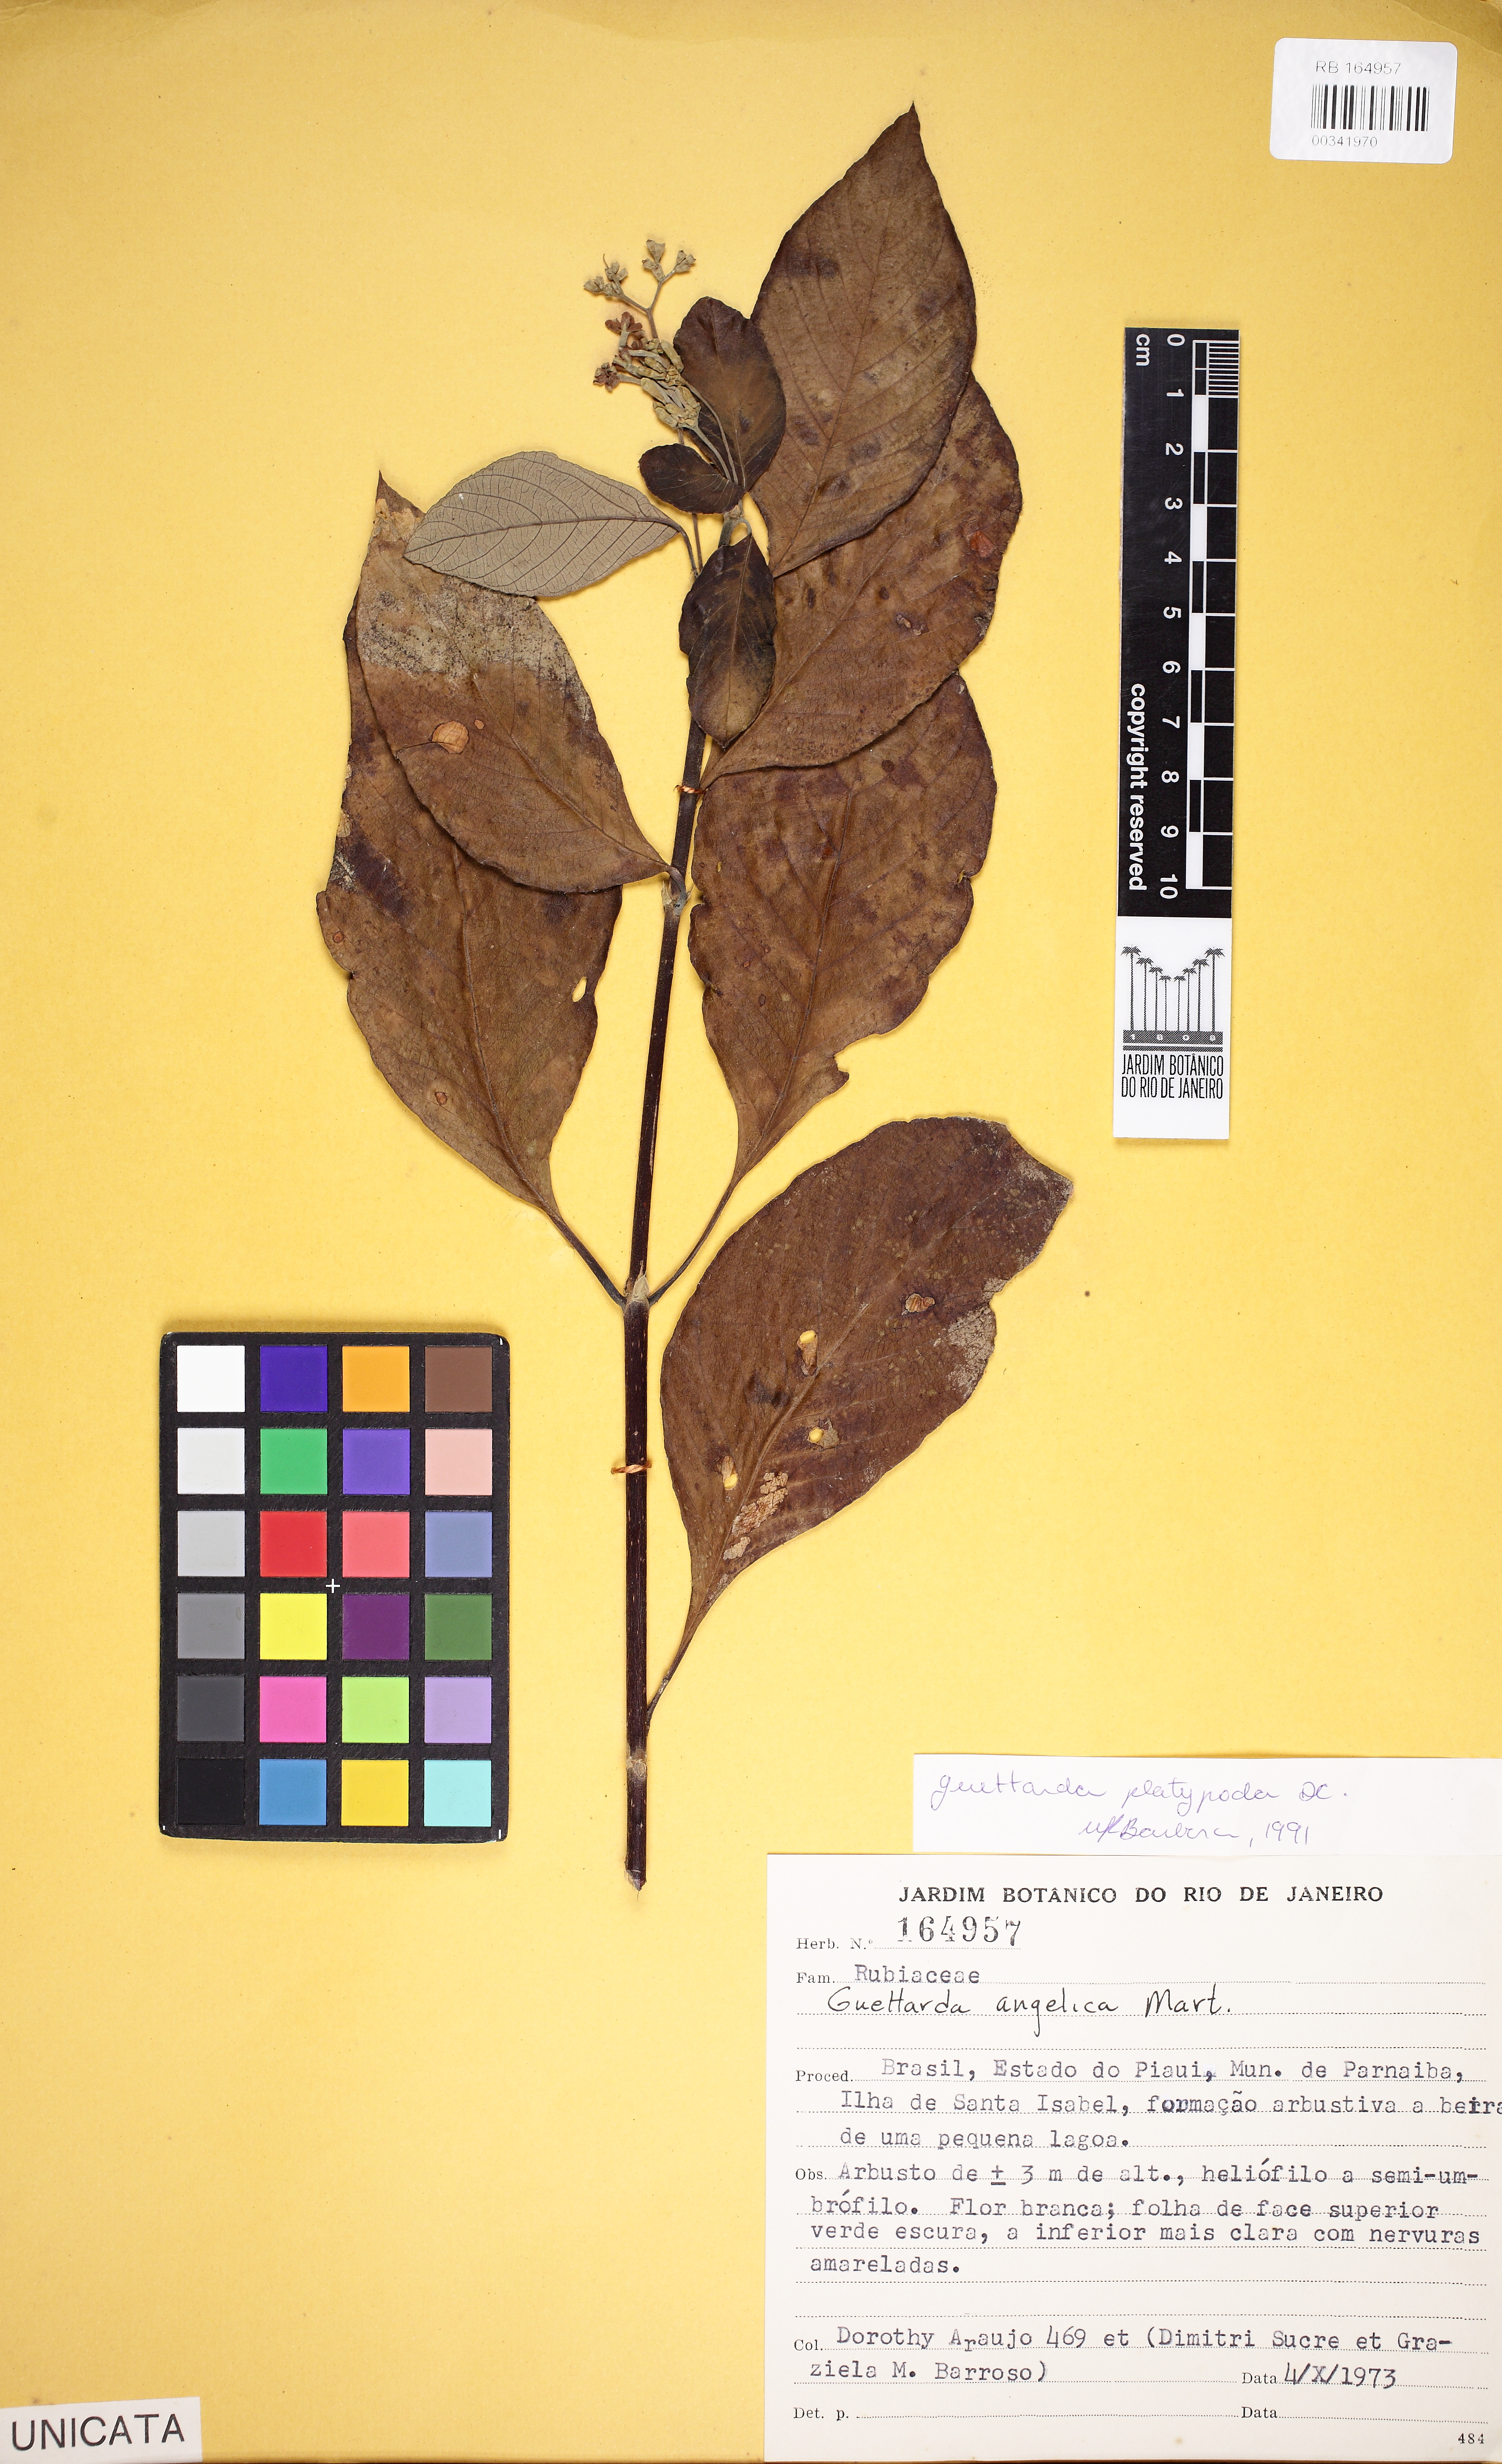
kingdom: Plantae
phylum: Tracheophyta
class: Magnoliopsida
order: Gentianales
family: Rubiaceae
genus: Guettarda
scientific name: Guettarda platypoda
